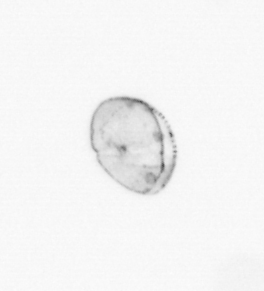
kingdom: Chromista
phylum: Ochrophyta
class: Bacillariophyceae
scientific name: Bacillariophyceae
